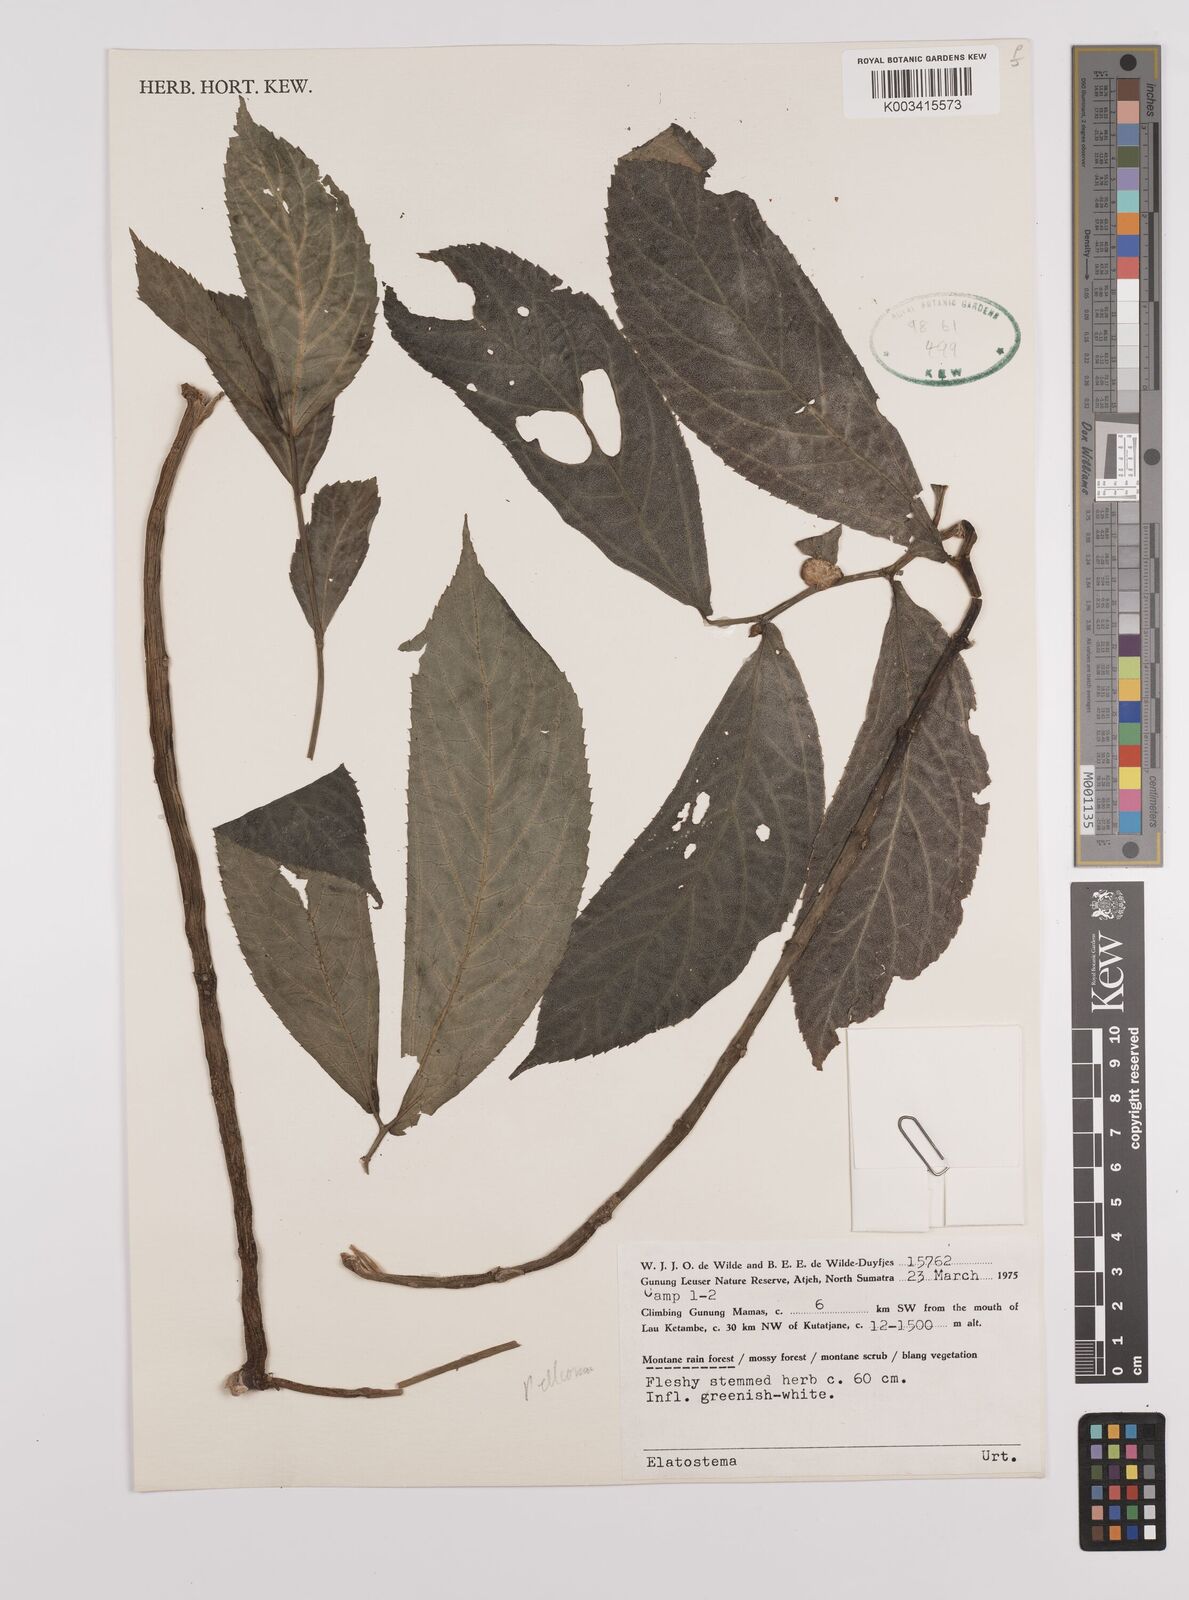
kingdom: Plantae
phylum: Tracheophyta
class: Magnoliopsida
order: Rosales
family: Urticaceae
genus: Elatostema
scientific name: Elatostema
